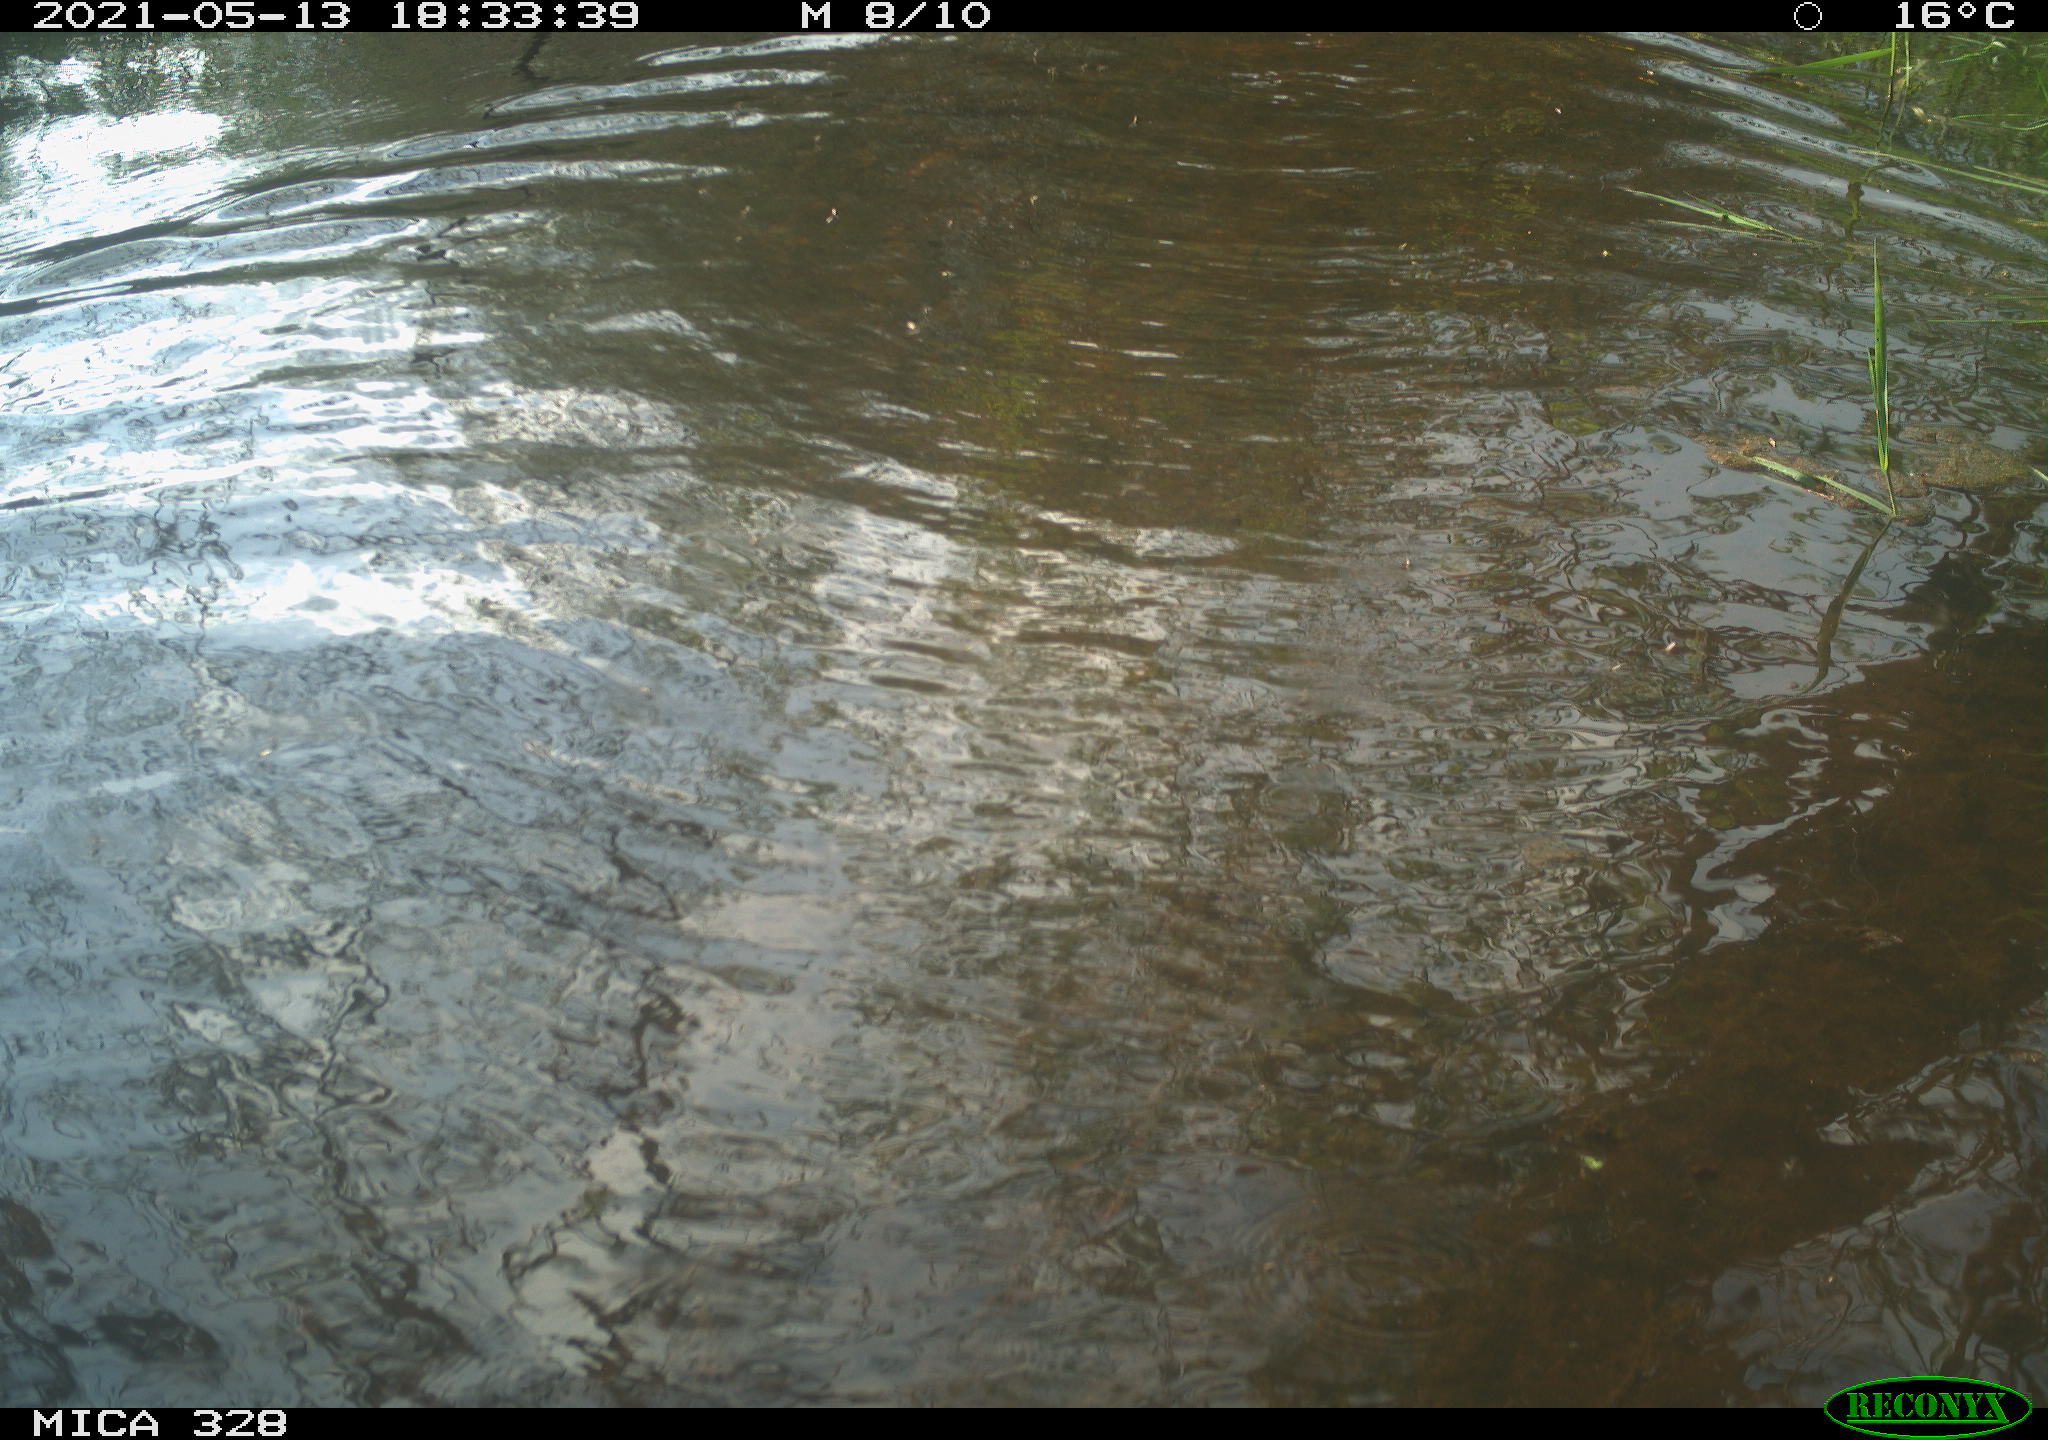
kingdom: Animalia
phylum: Chordata
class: Mammalia
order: Rodentia
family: Cricetidae
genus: Ondatra
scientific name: Ondatra zibethicus
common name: Muskrat
